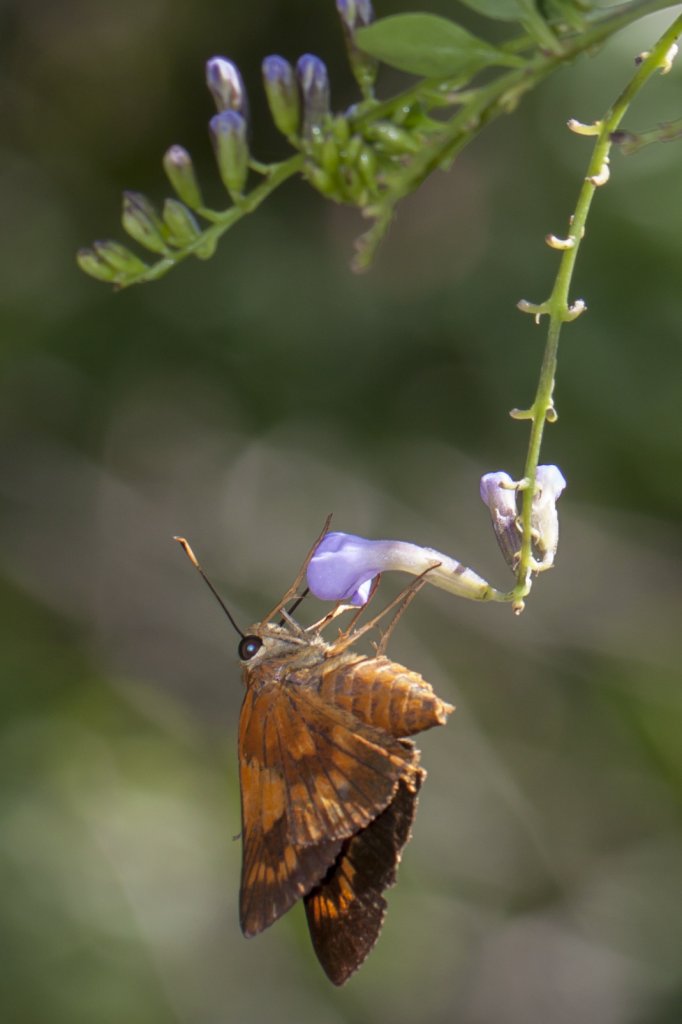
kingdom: Animalia
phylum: Arthropoda
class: Insecta
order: Lepidoptera
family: Hesperiidae
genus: Pyrrhocalles
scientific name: Pyrrhocalles antiqua
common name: Caribbean Skipper
